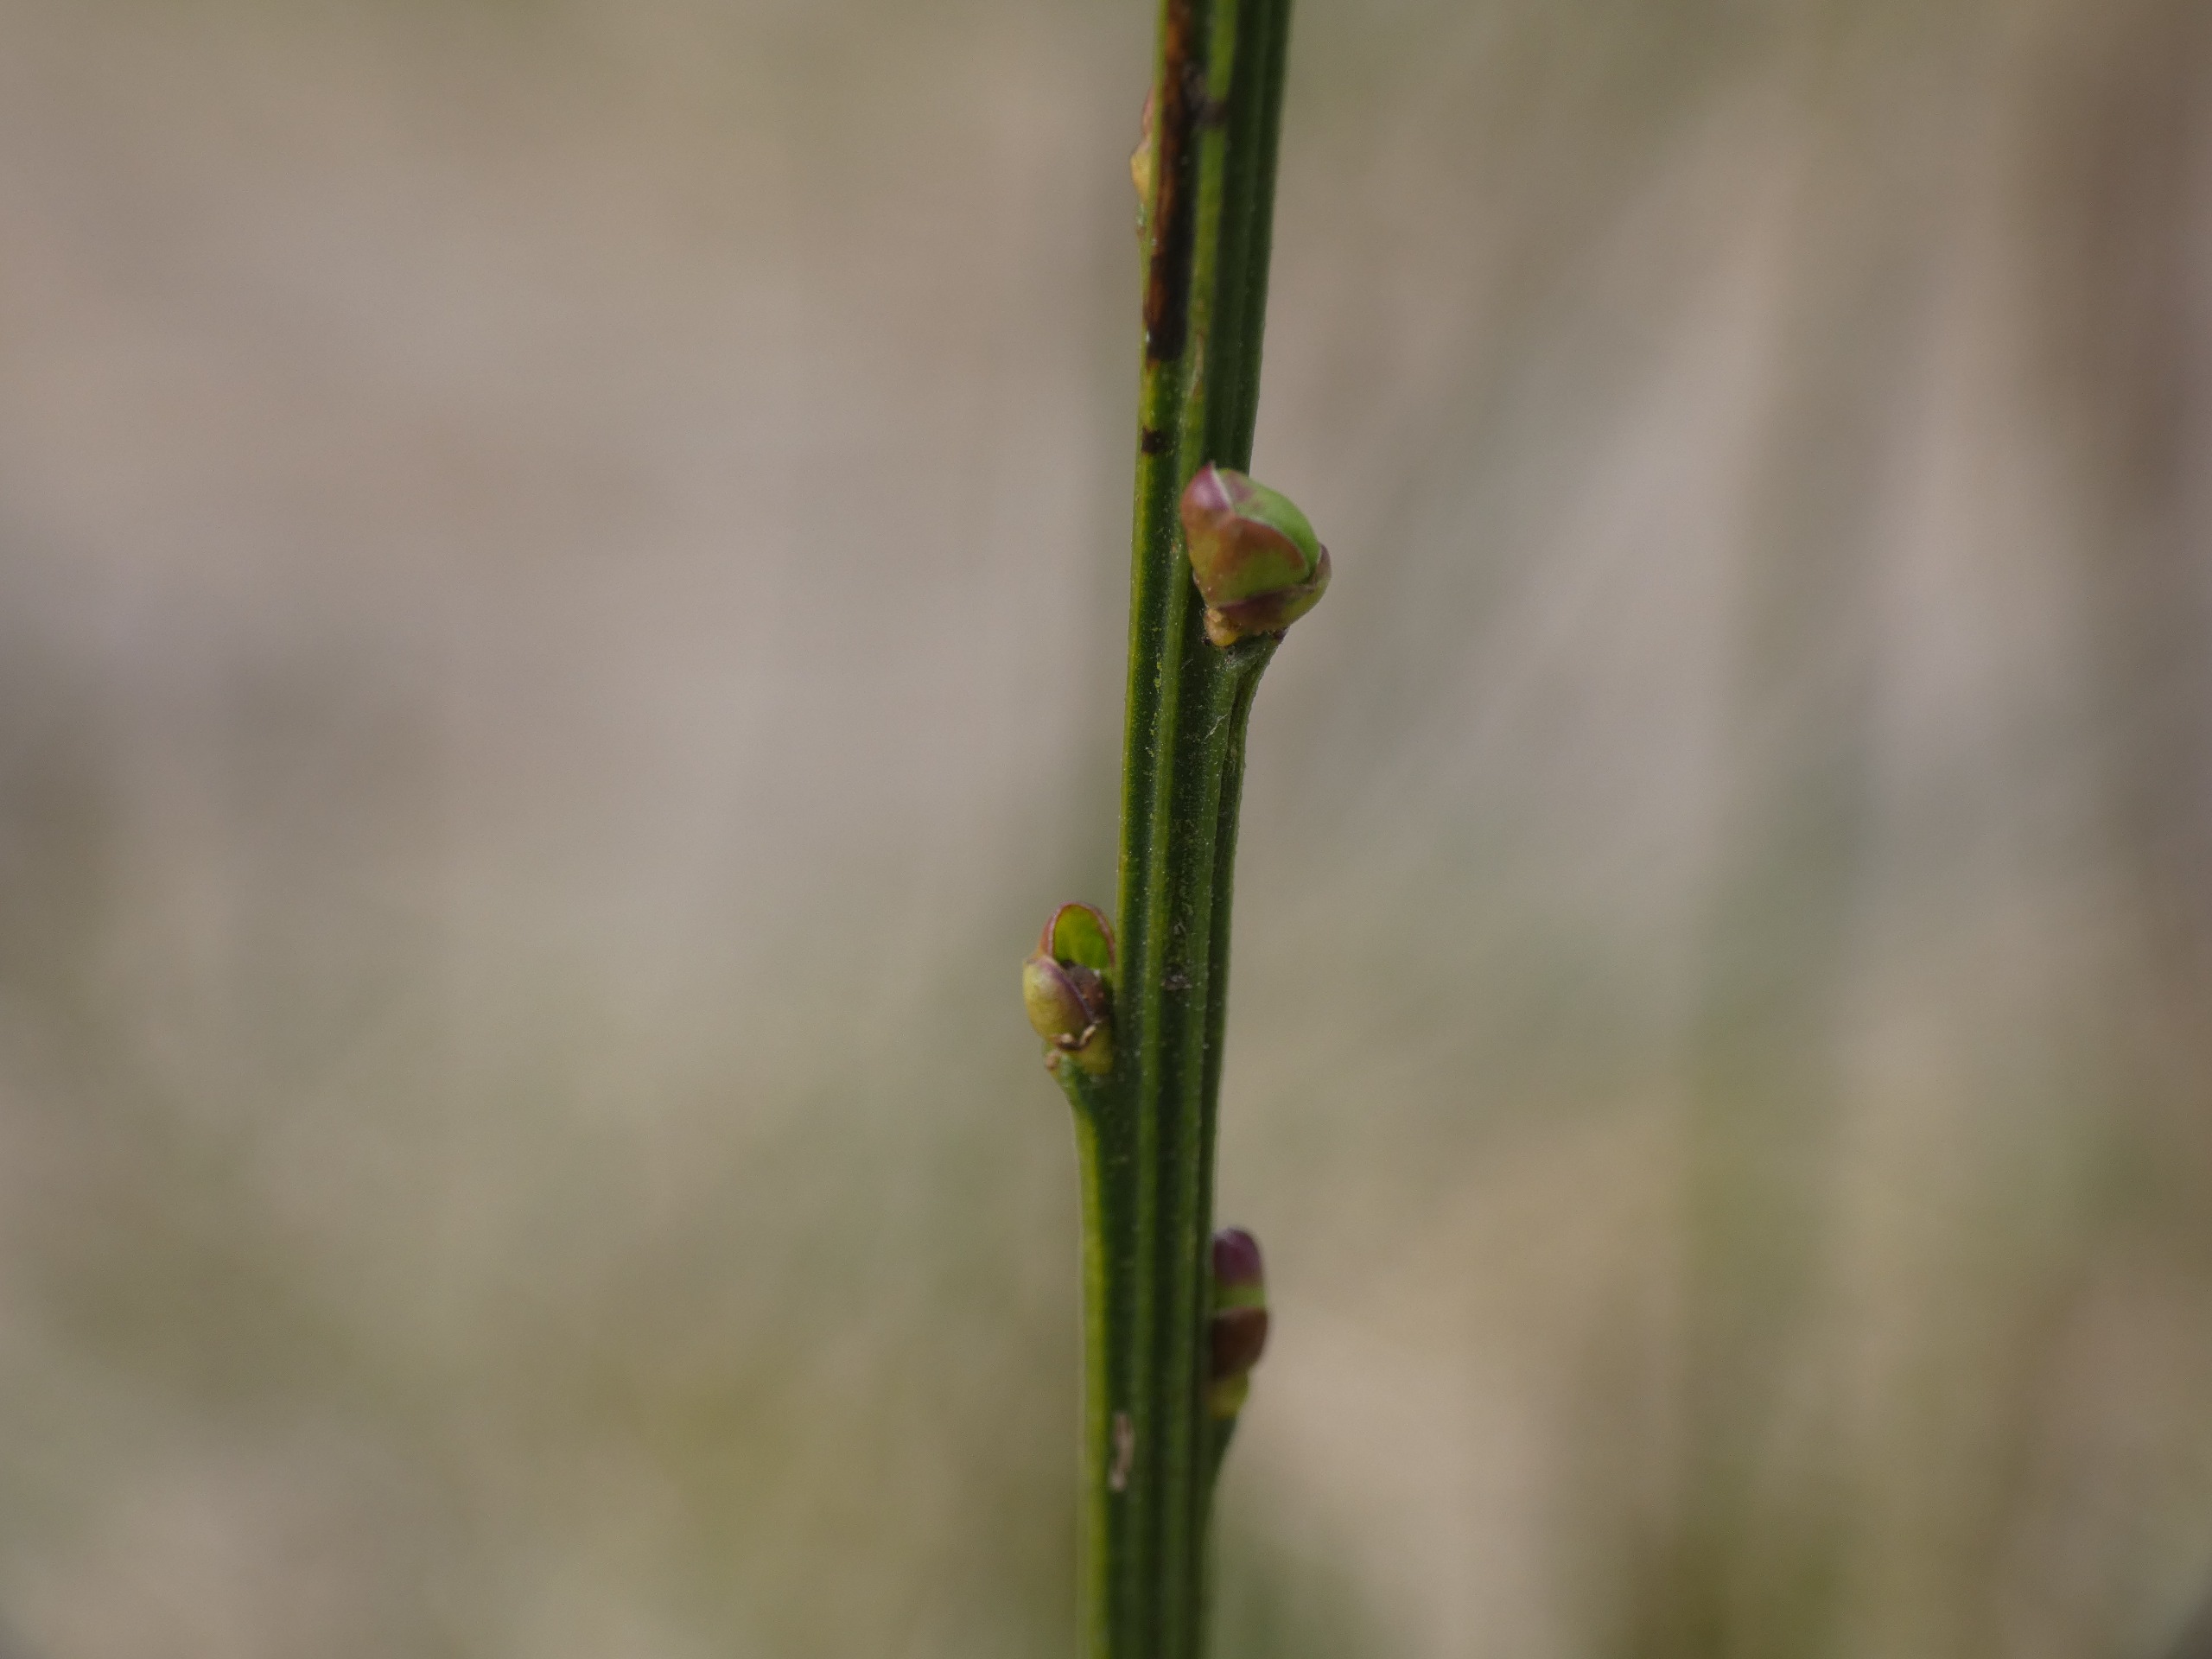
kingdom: Plantae
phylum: Tracheophyta
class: Magnoliopsida
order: Fabales
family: Fabaceae
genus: Cytisus
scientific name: Cytisus scoparius
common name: Almindelig gyvel
